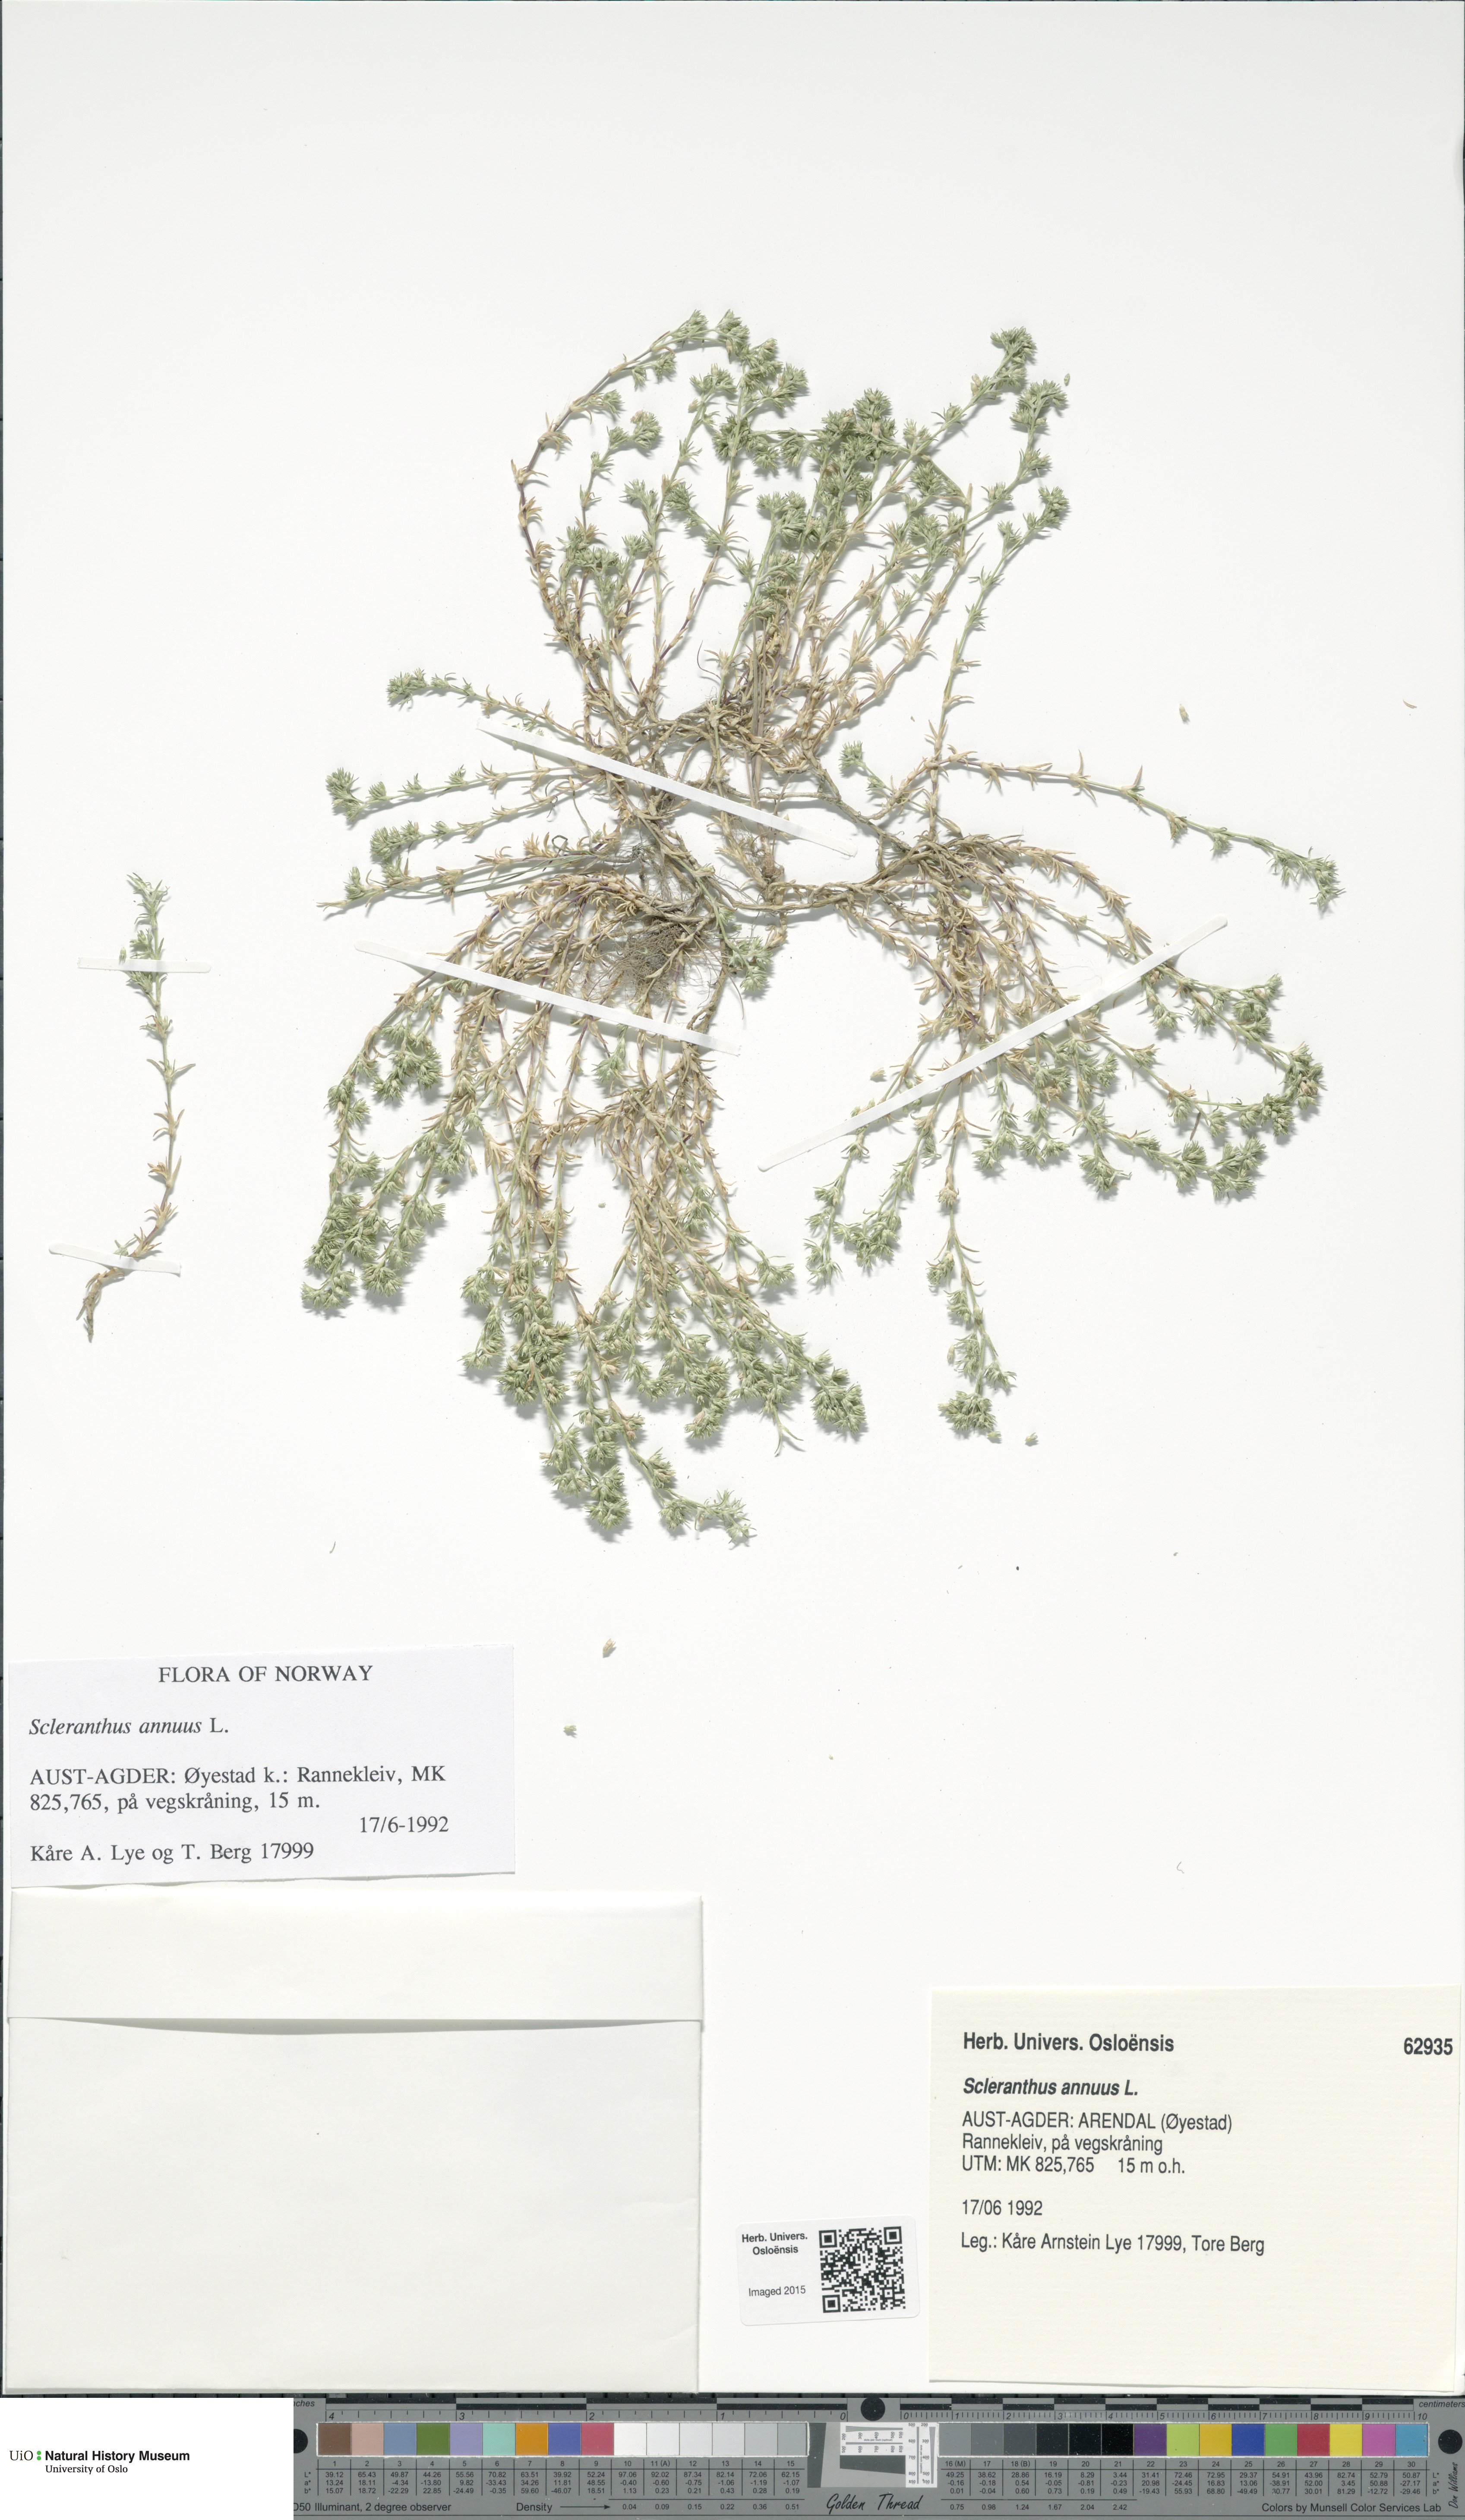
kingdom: Plantae
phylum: Tracheophyta
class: Magnoliopsida
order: Caryophyllales
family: Caryophyllaceae
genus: Scleranthus
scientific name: Scleranthus annuus
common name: Annual knawel
